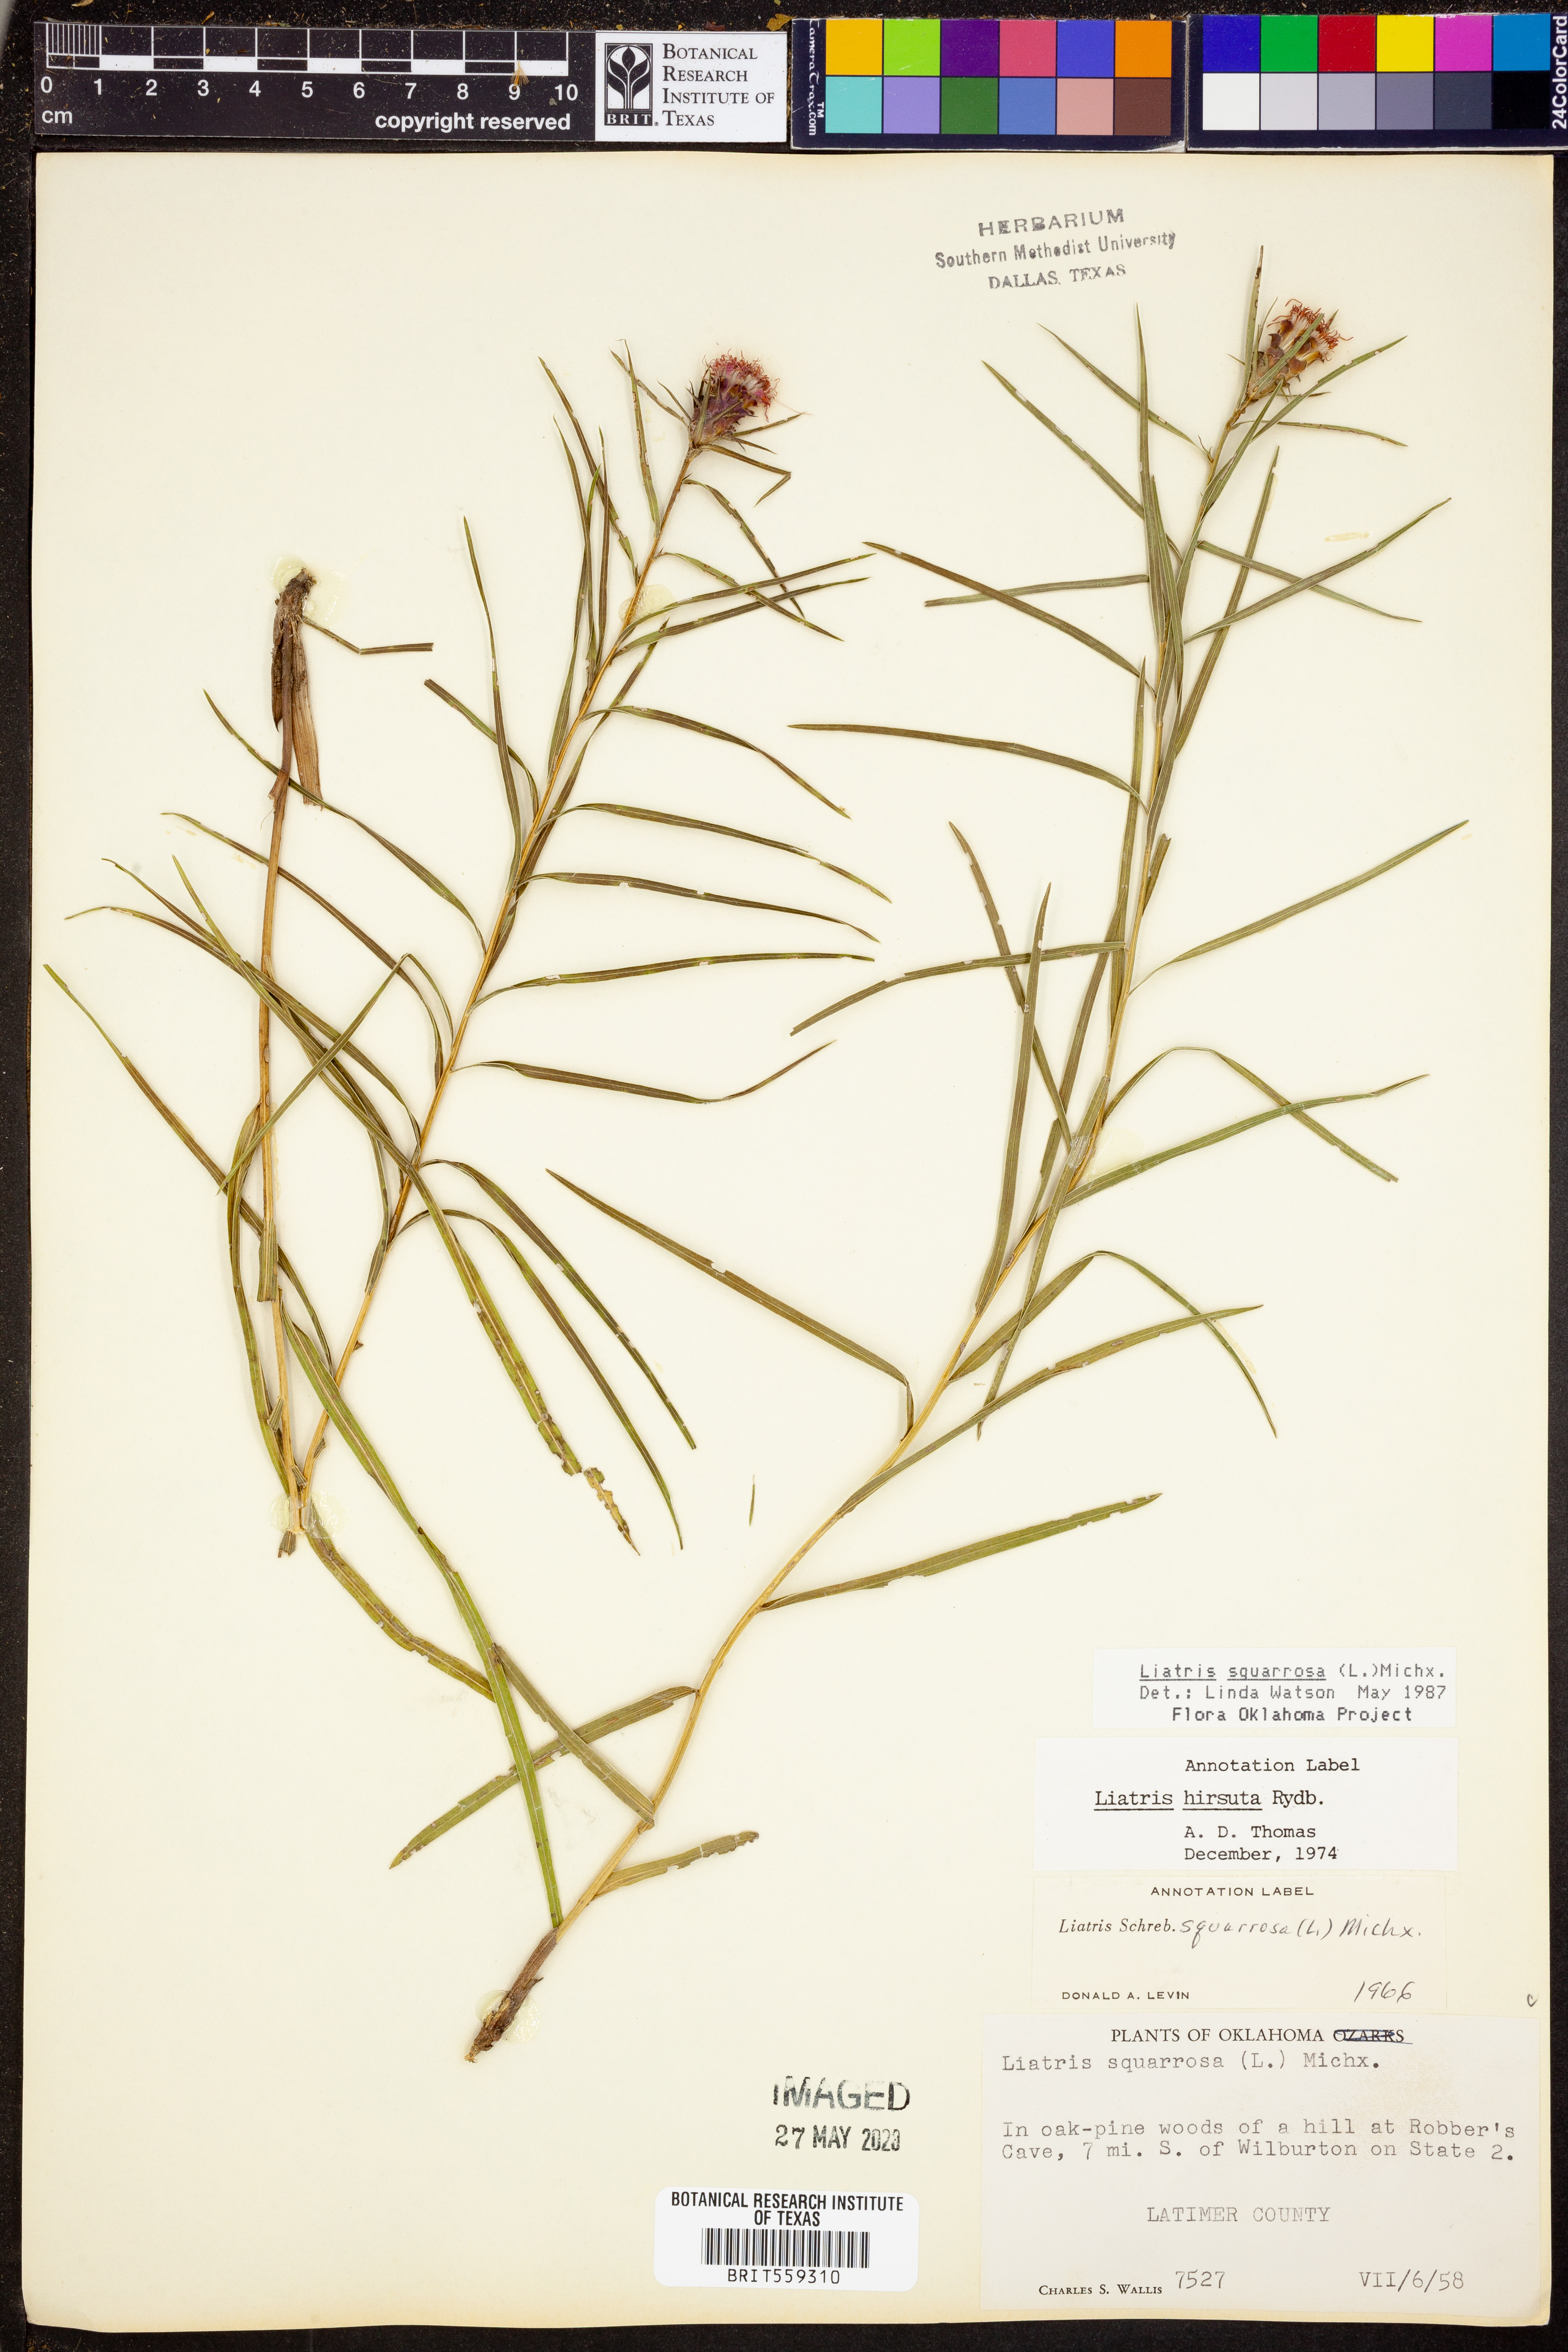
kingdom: Plantae
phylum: Tracheophyta
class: Magnoliopsida
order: Asterales
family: Asteraceae
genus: Liatris
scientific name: Liatris squarrosa
